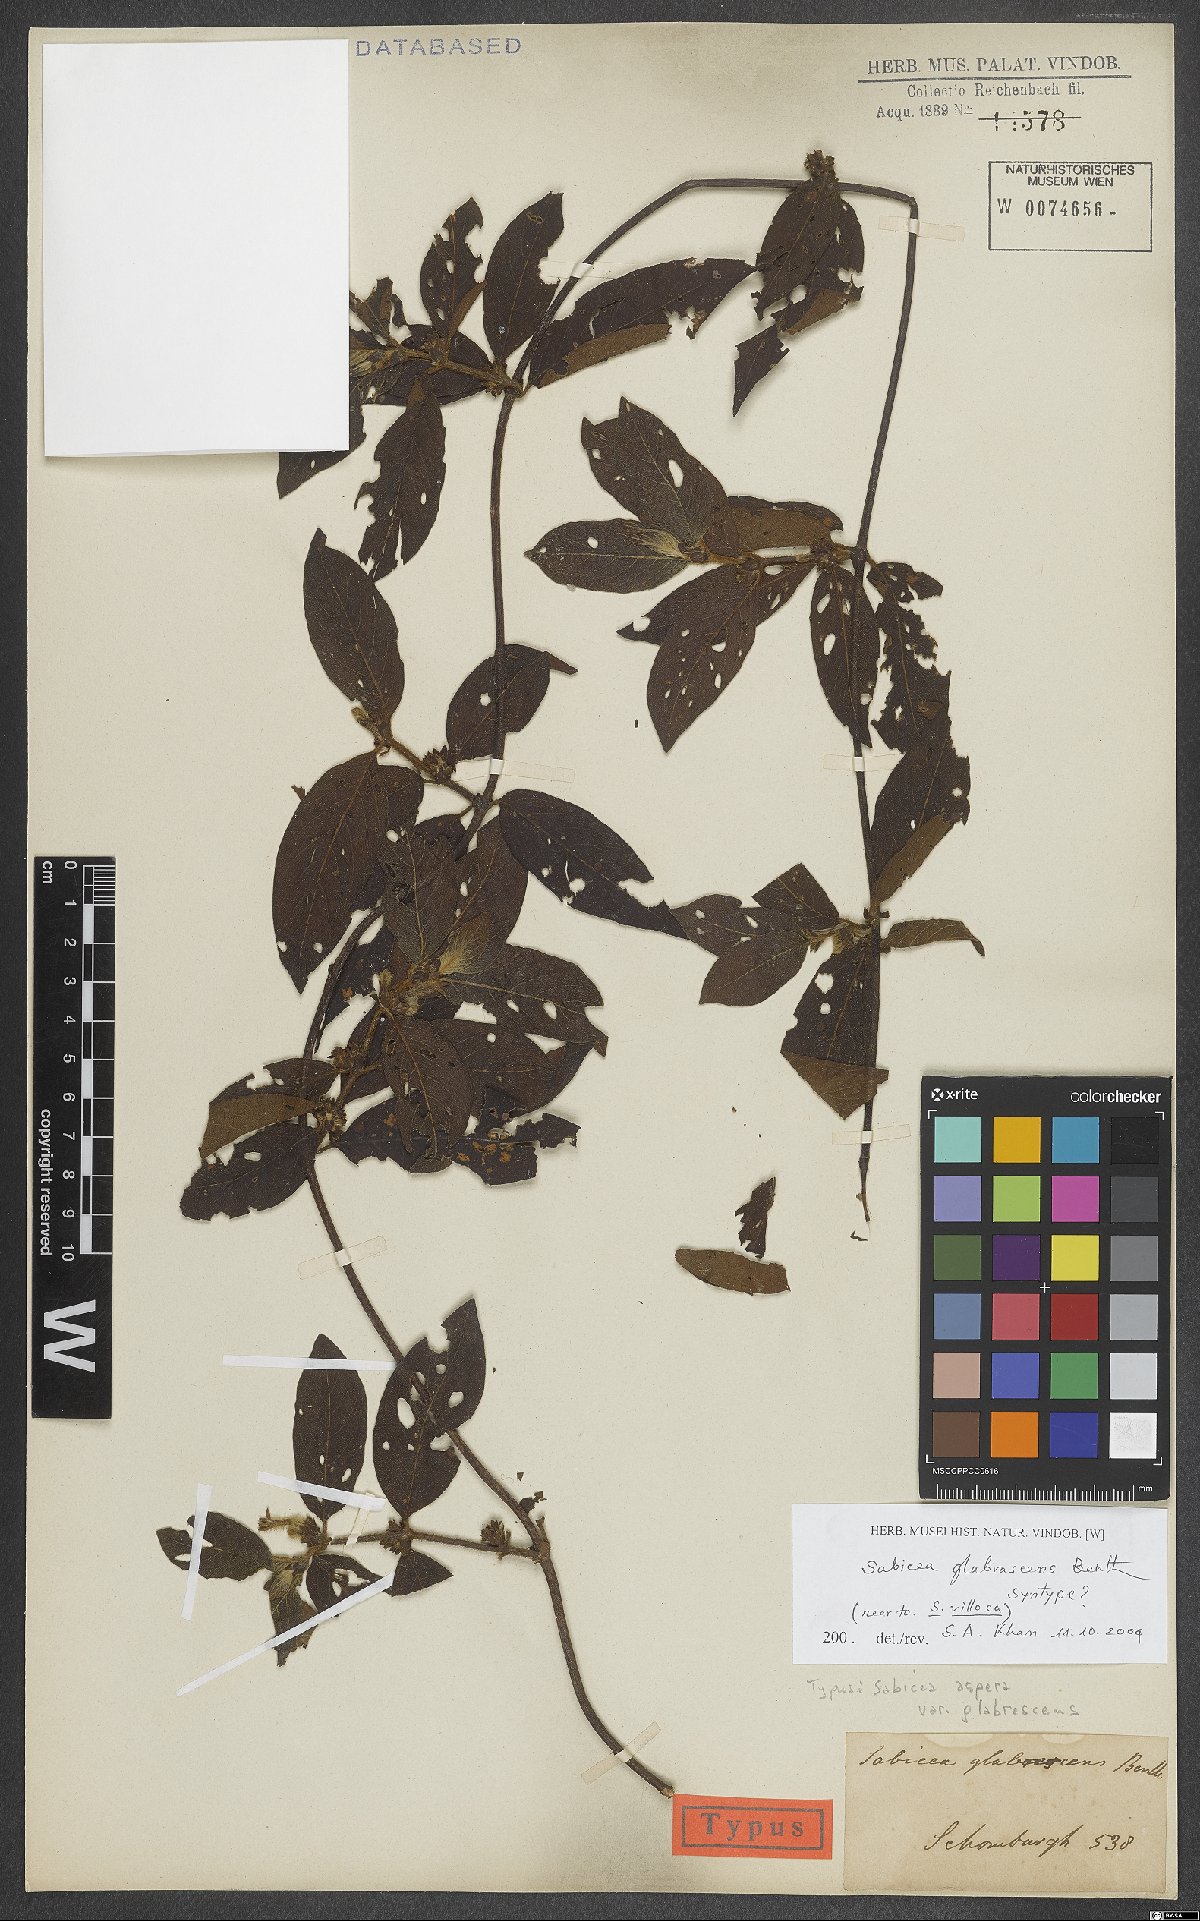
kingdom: Plantae
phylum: Tracheophyta
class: Magnoliopsida
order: Gentianales
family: Rubiaceae
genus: Sabicea
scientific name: Sabicea glabrescens
